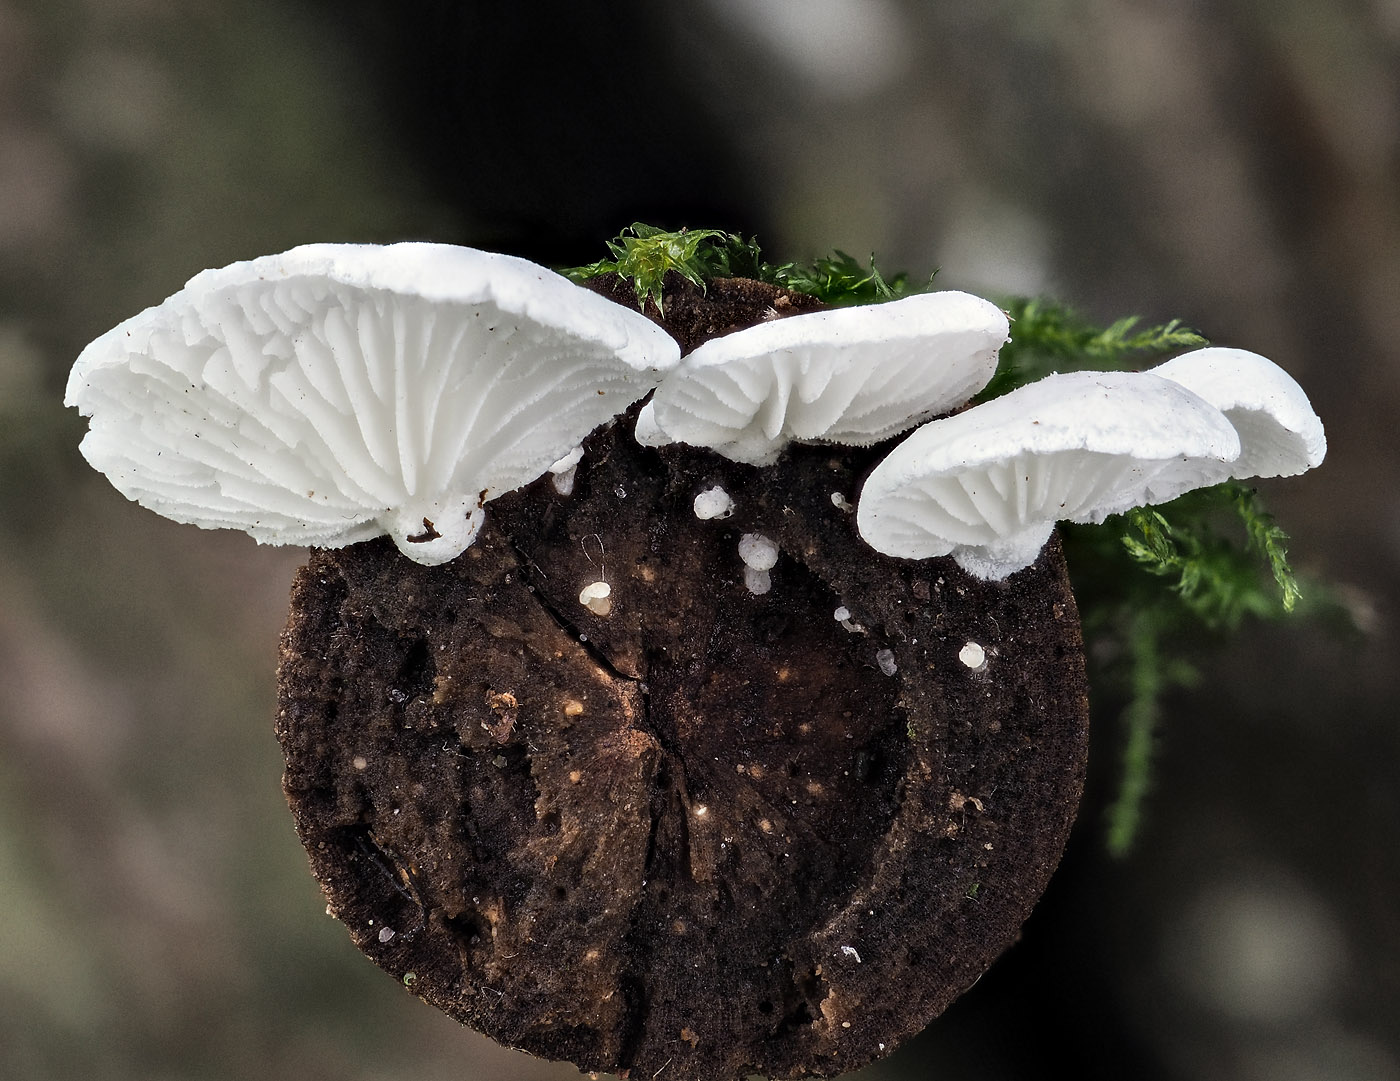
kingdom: Fungi
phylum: Basidiomycota
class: Agaricomycetes
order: Agaricales
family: Cyphellaceae
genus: Cheimonophyllum
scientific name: Cheimonophyllum
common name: vifteblad
